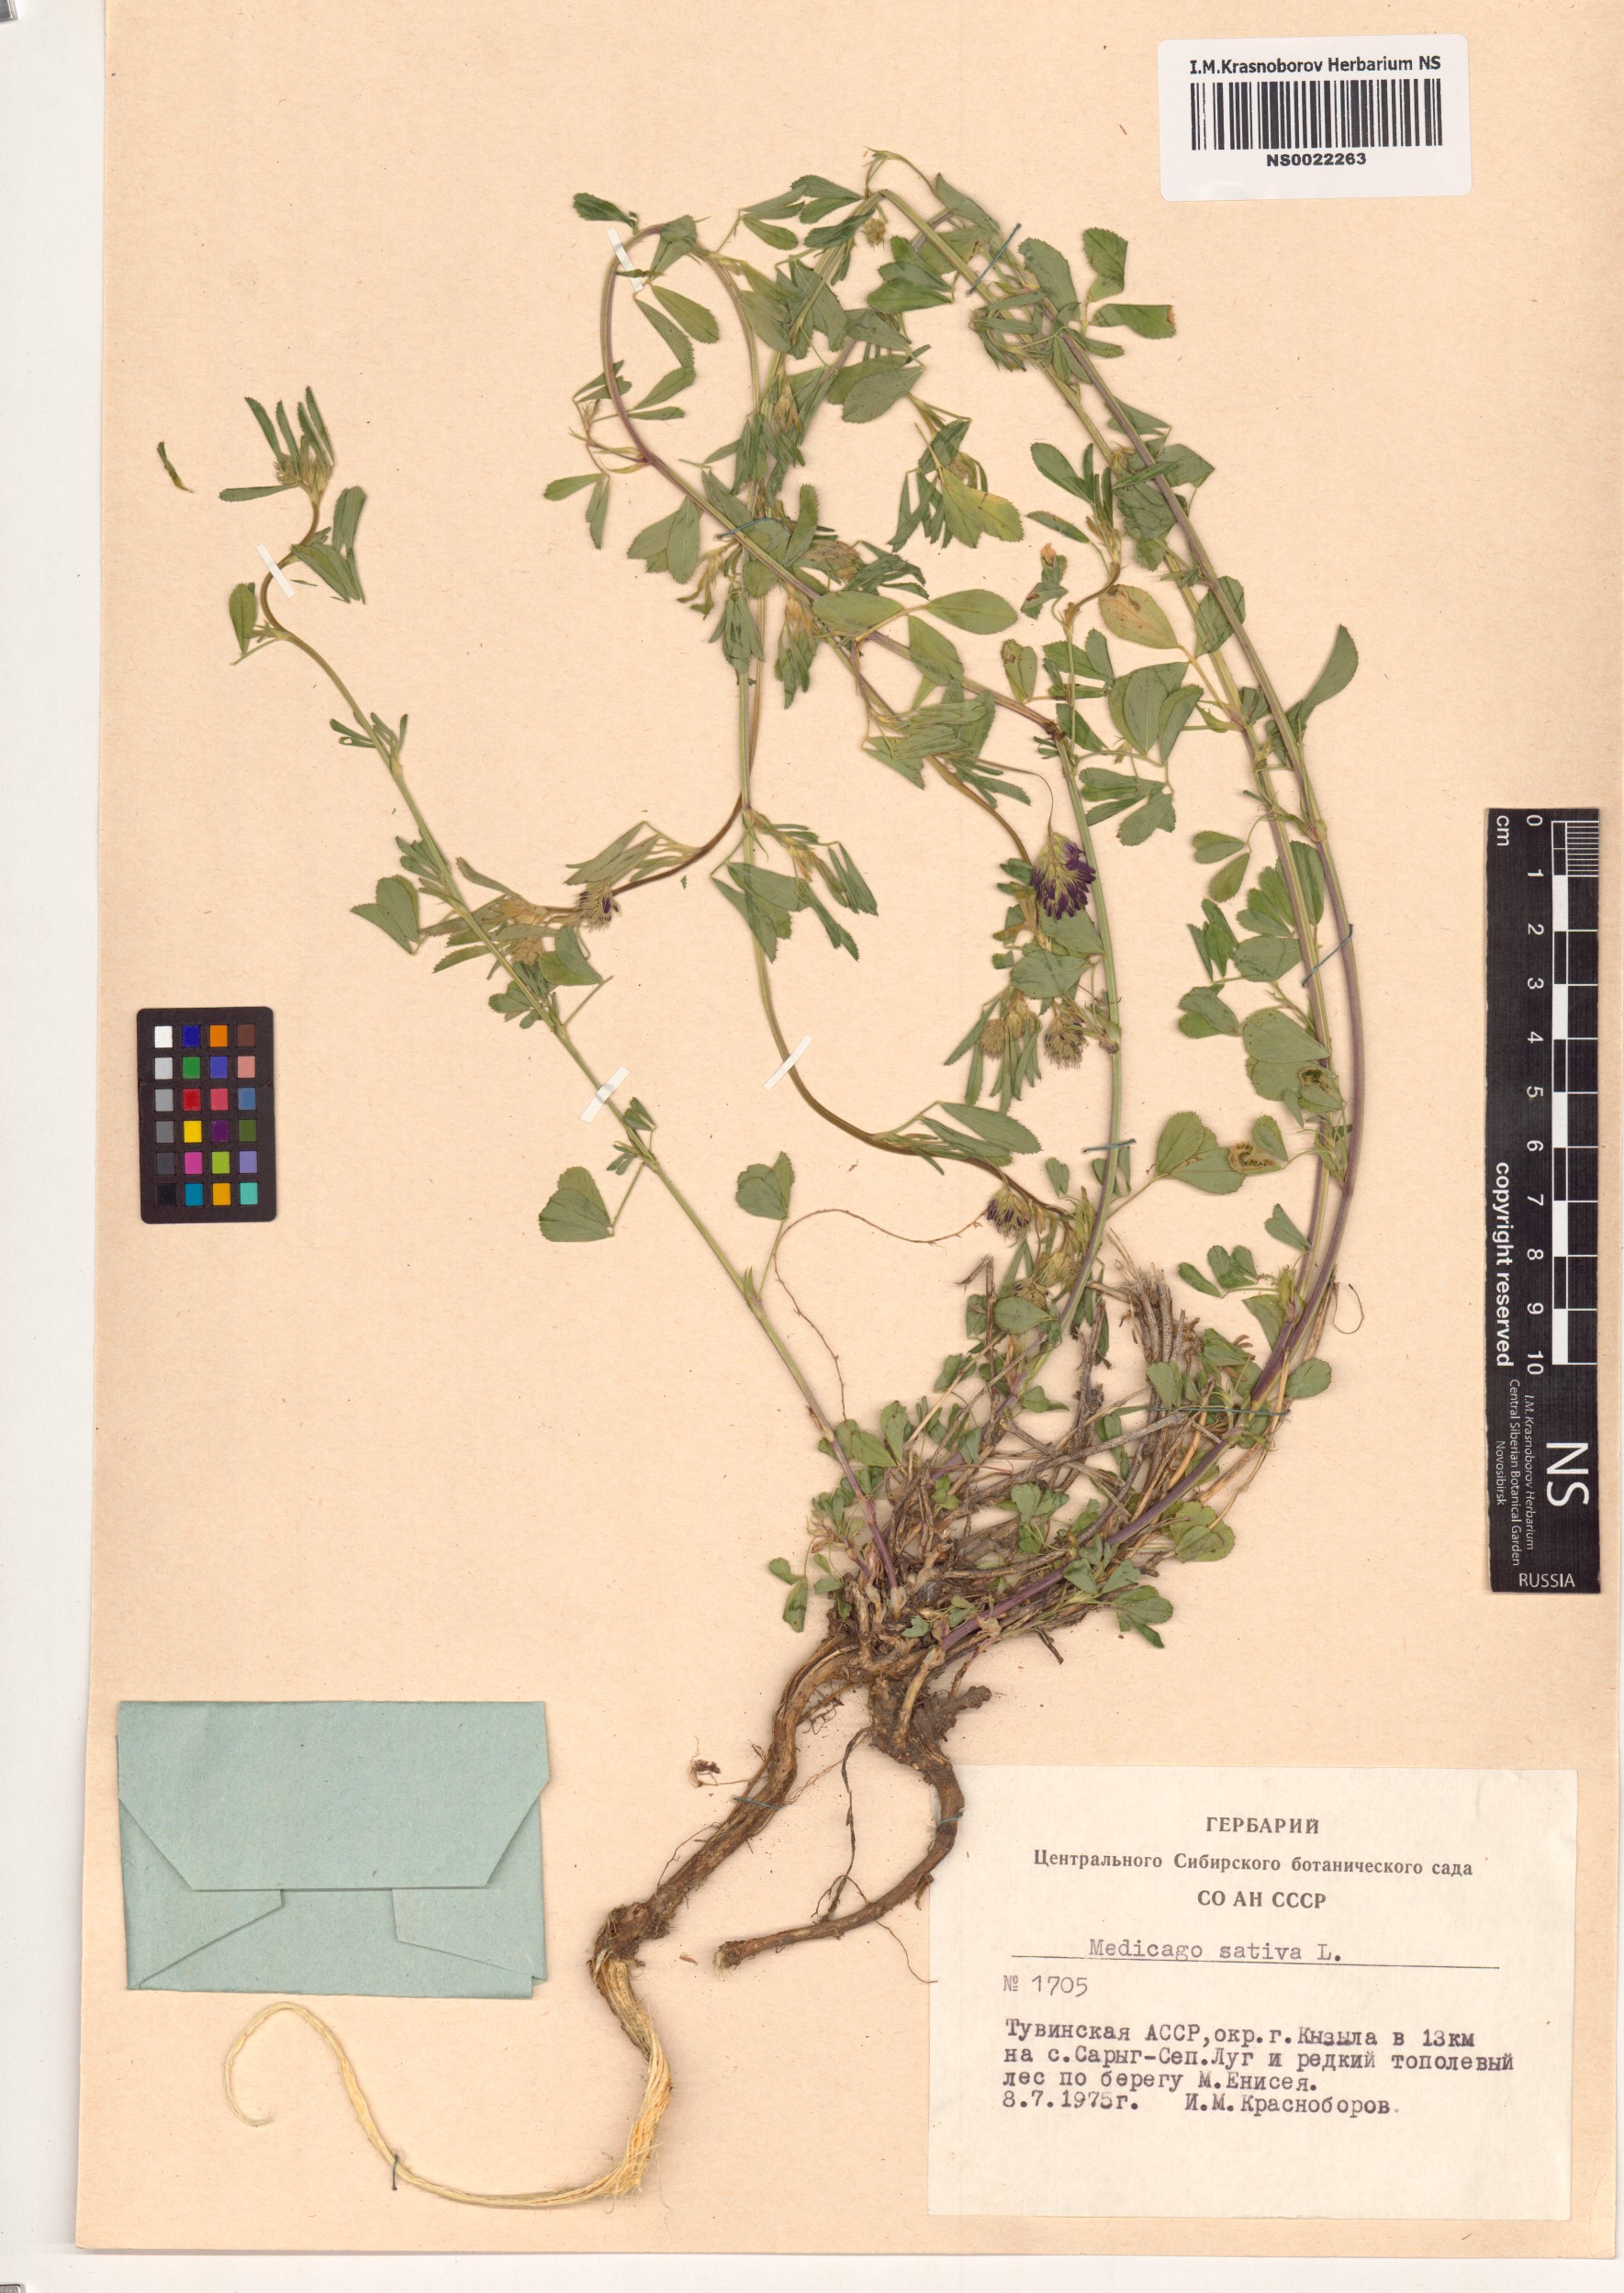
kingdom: Plantae
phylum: Tracheophyta
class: Magnoliopsida
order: Fabales
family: Fabaceae
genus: Medicago
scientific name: Medicago sativa
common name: Alfalfa
